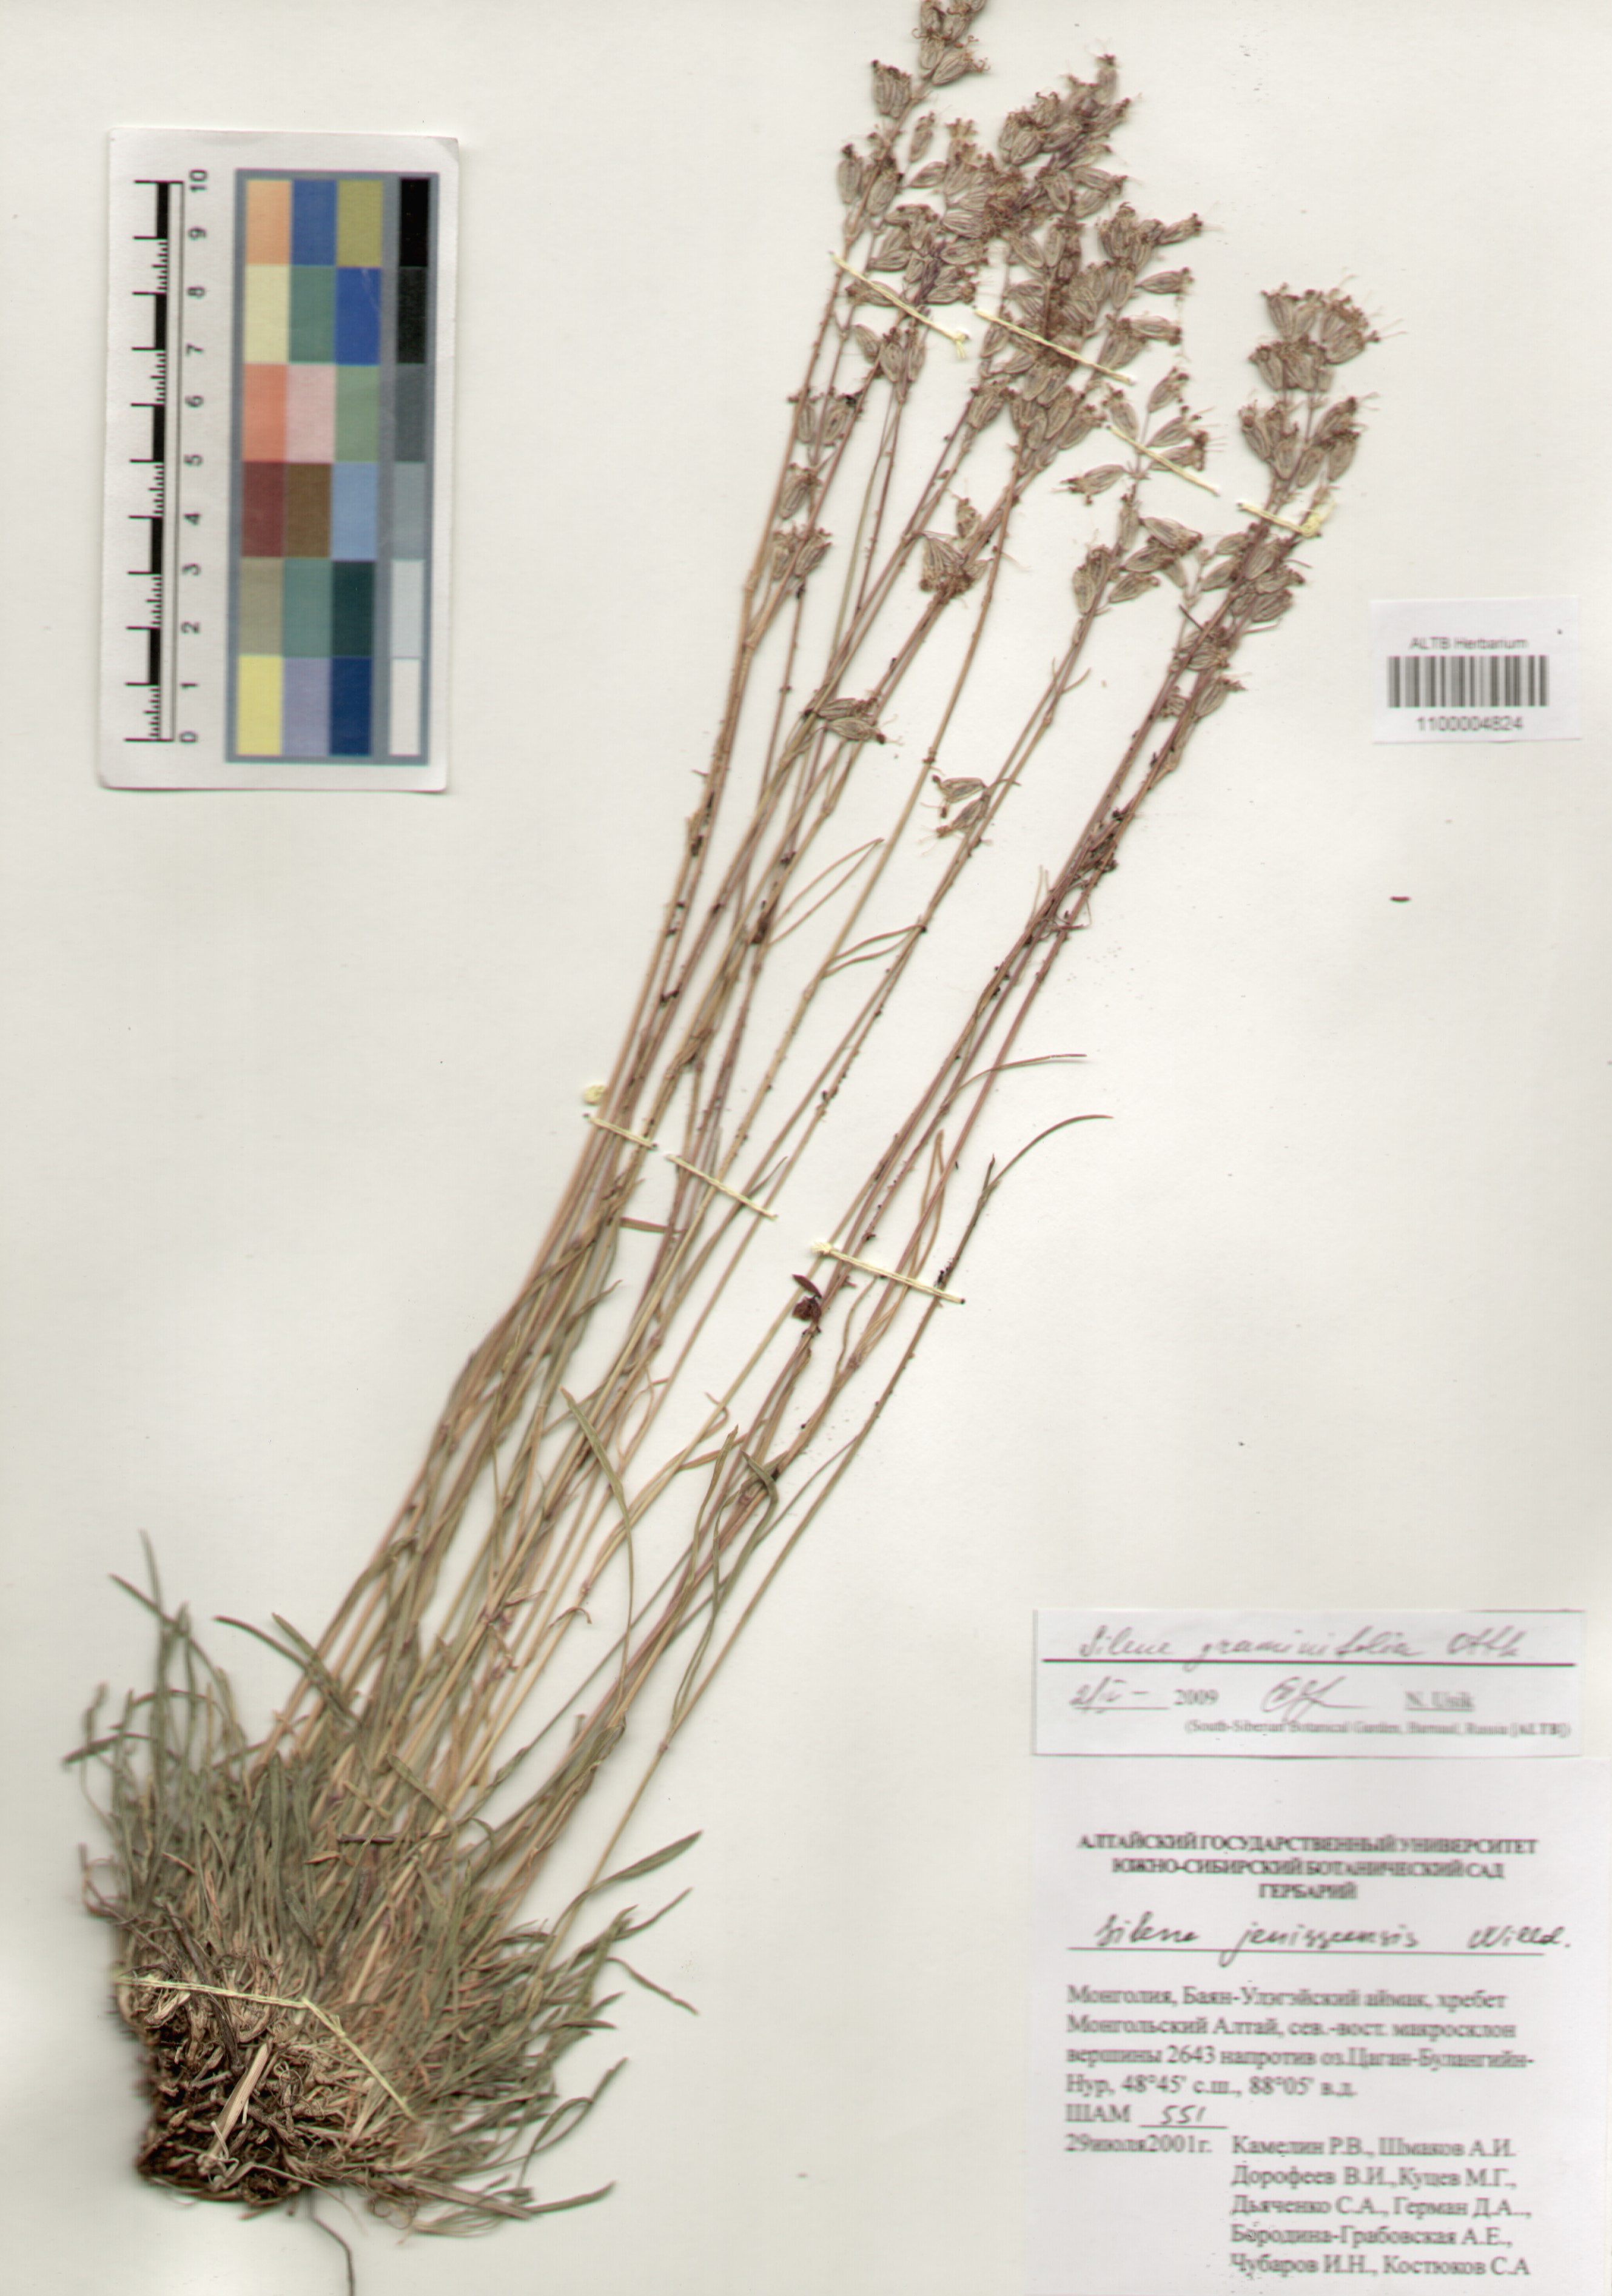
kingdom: Plantae
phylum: Tracheophyta
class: Magnoliopsida
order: Caryophyllales
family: Caryophyllaceae
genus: Silene
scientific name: Silene graminifolia
